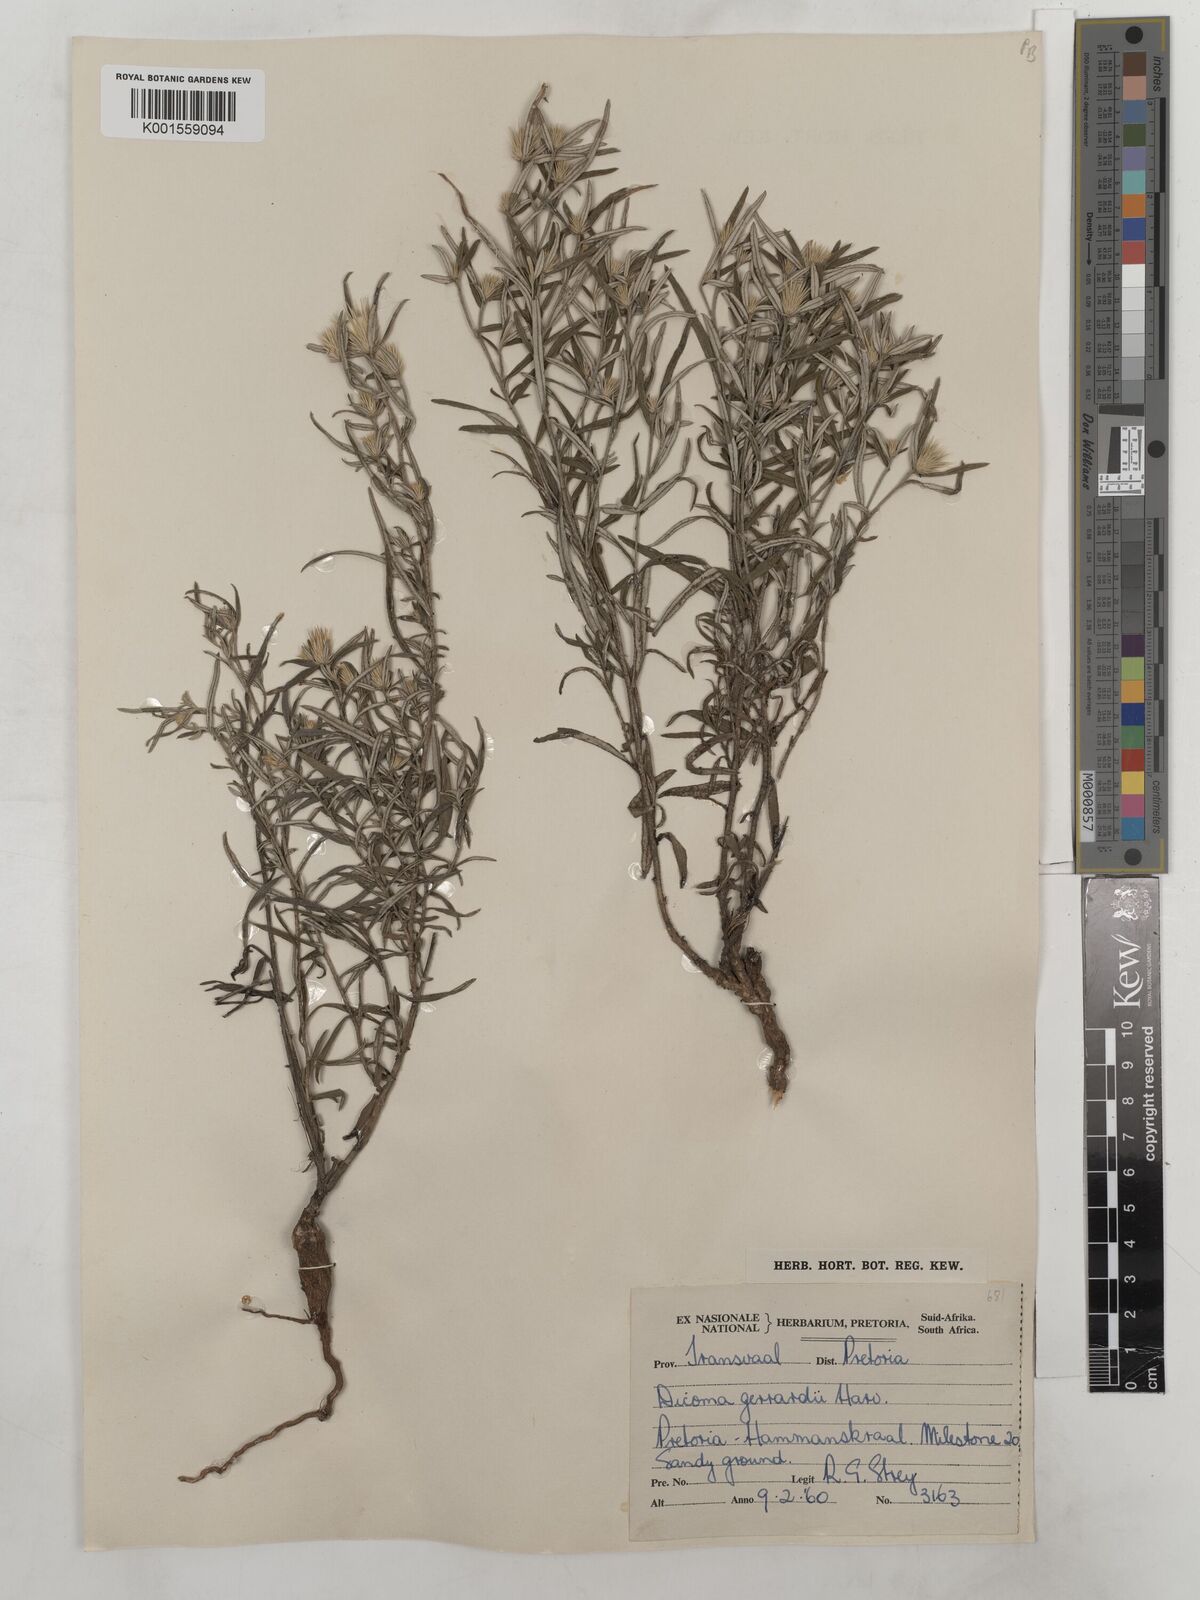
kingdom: Plantae
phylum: Tracheophyta
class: Magnoliopsida
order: Asterales
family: Asteraceae
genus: Dicoma
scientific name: Dicoma anomala
